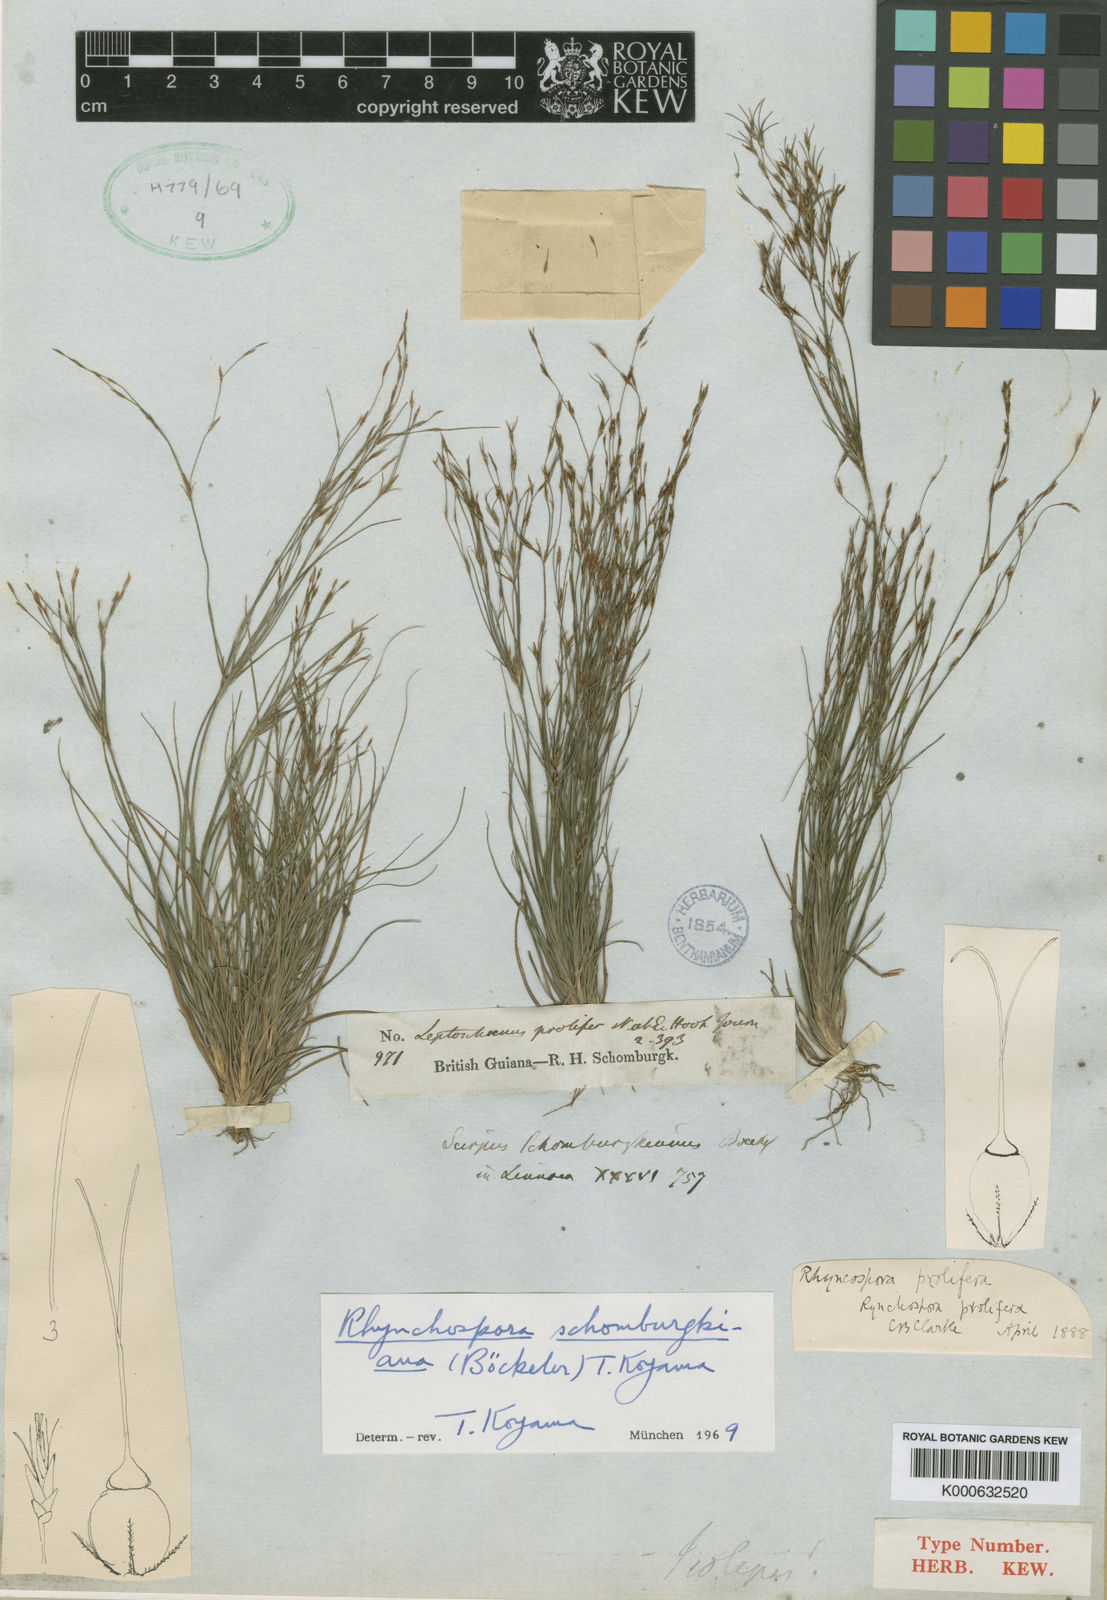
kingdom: Plantae
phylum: Tracheophyta
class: Liliopsida
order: Poales
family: Cyperaceae
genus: Rhynchospora
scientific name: Rhynchospora schomburgkiana
